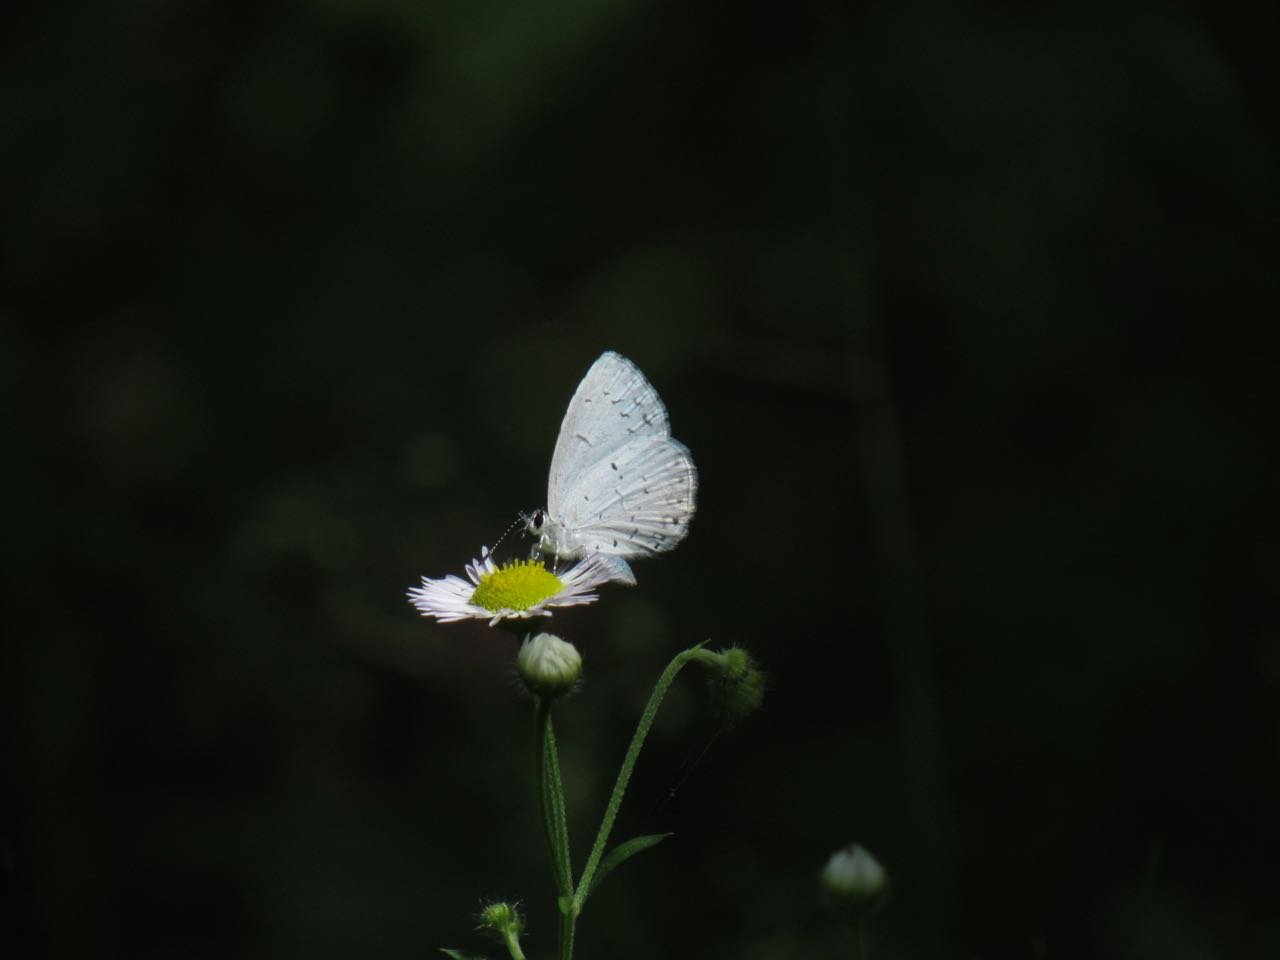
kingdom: Animalia
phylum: Arthropoda
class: Insecta
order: Lepidoptera
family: Lycaenidae
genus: Cyaniris
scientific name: Cyaniris neglecta
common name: Summer Azure
